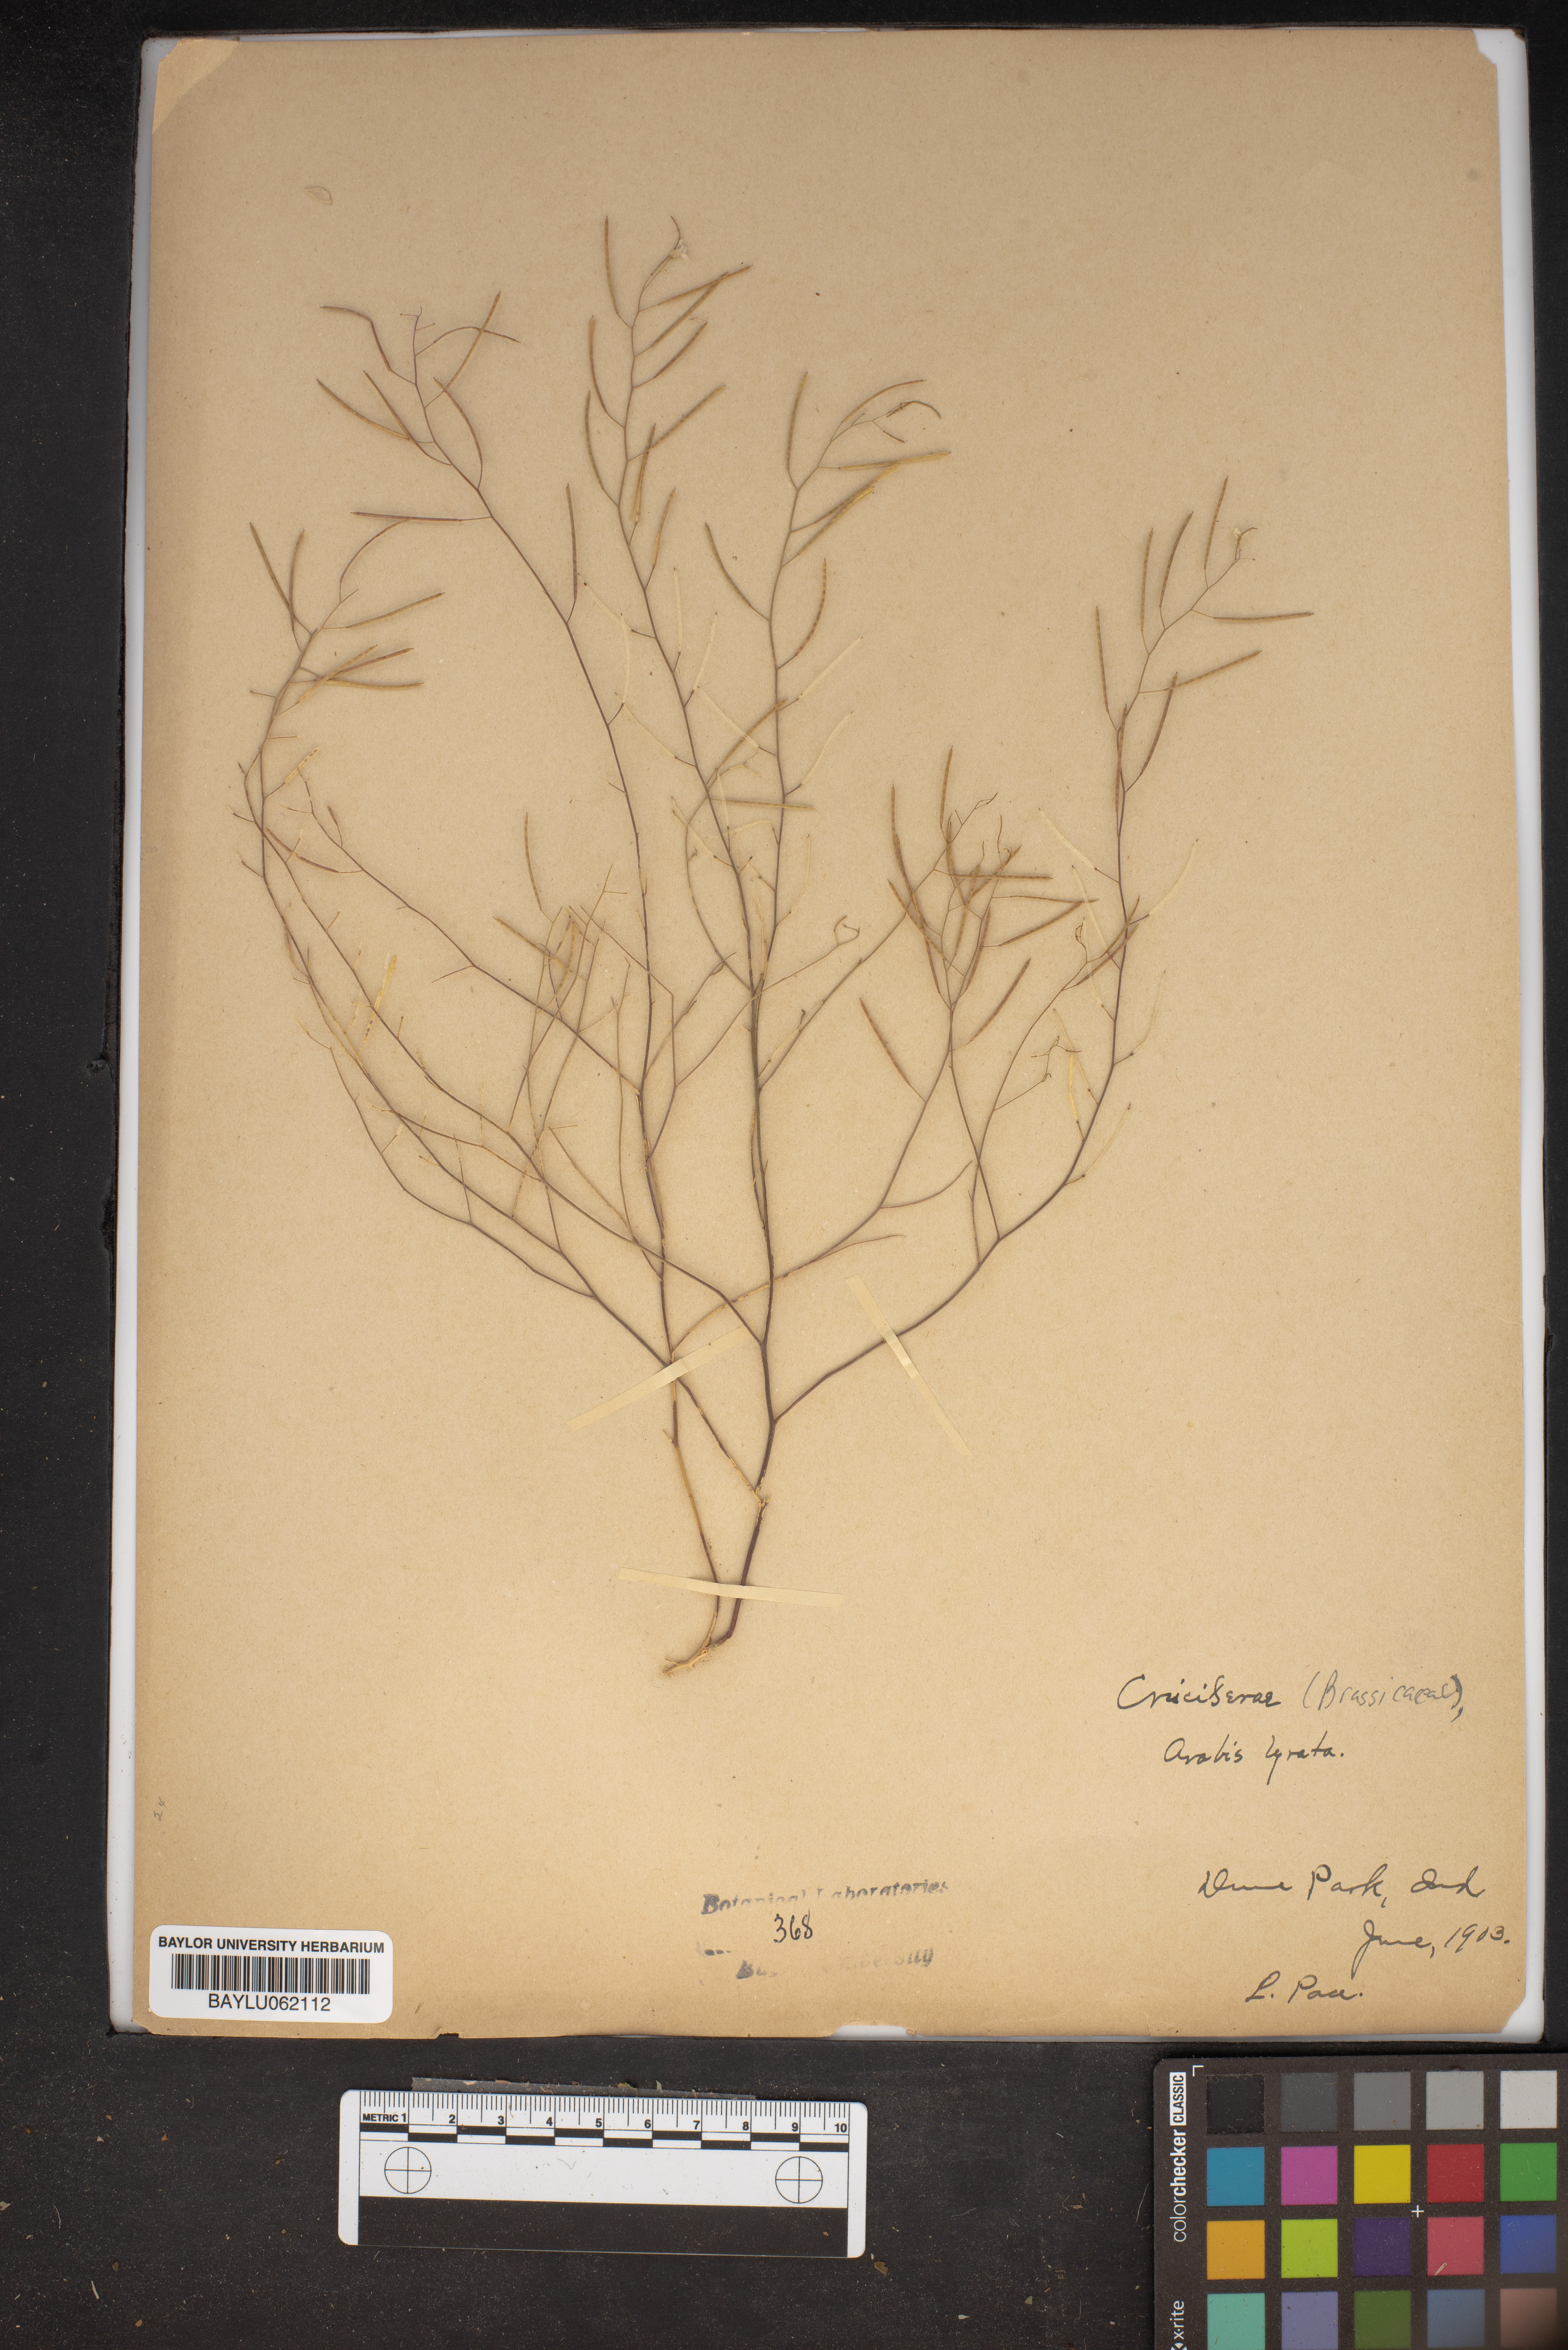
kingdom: Plantae
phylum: Tracheophyta
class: Magnoliopsida
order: Brassicales
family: Brassicaceae
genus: Arabidopsis
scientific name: Arabidopsis lyrata
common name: Lyrate rockcress
